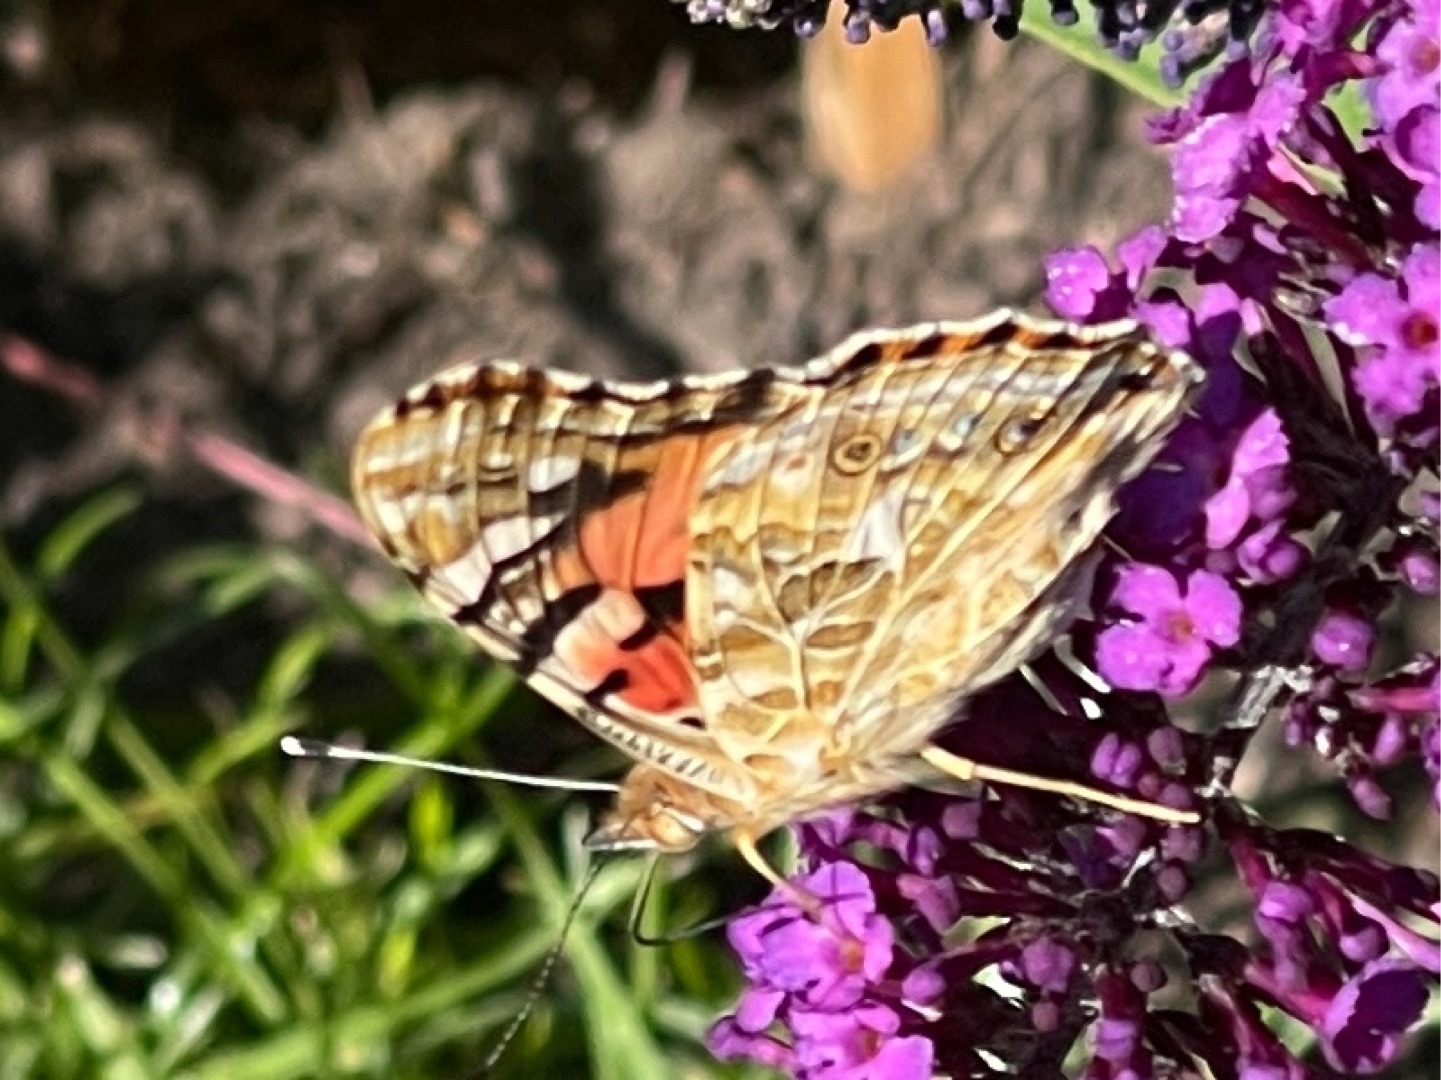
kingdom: Animalia
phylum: Arthropoda
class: Insecta
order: Lepidoptera
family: Nymphalidae
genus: Vanessa
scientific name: Vanessa cardui
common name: Tidselsommerfugl
